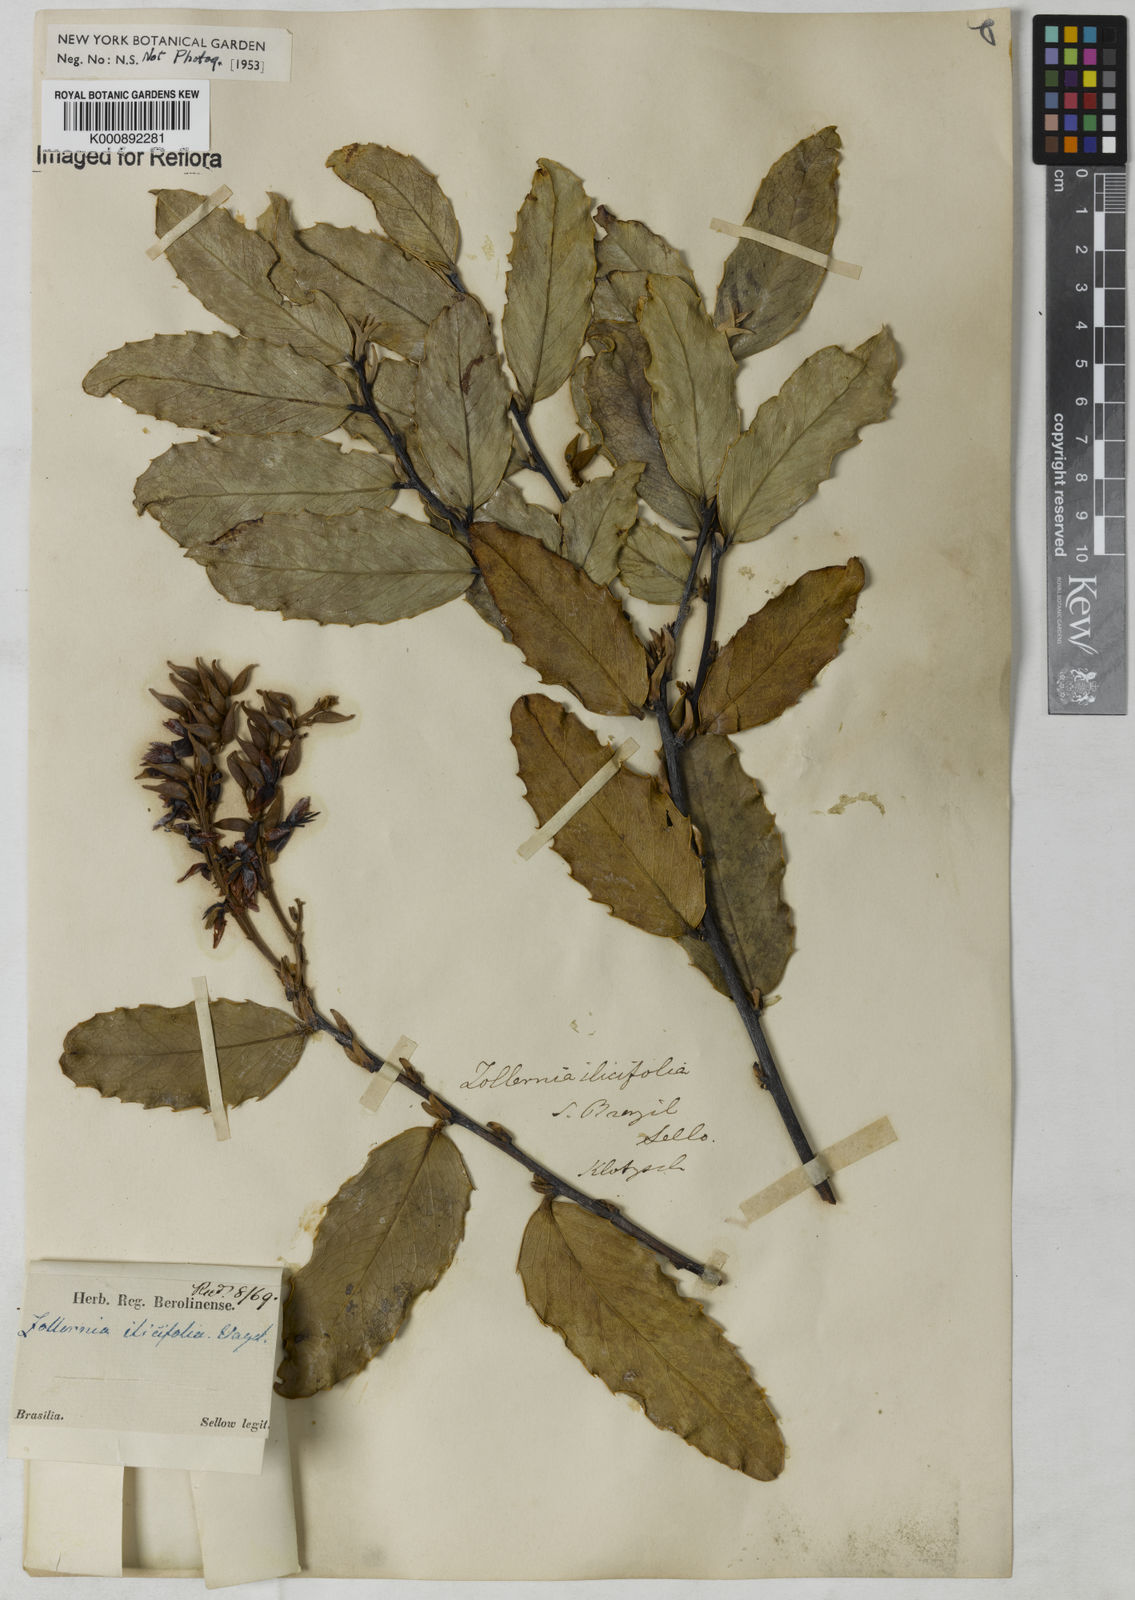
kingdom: Plantae
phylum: Tracheophyta
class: Magnoliopsida
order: Fabales
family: Fabaceae
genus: Zollernia
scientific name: Zollernia ilicifolia
